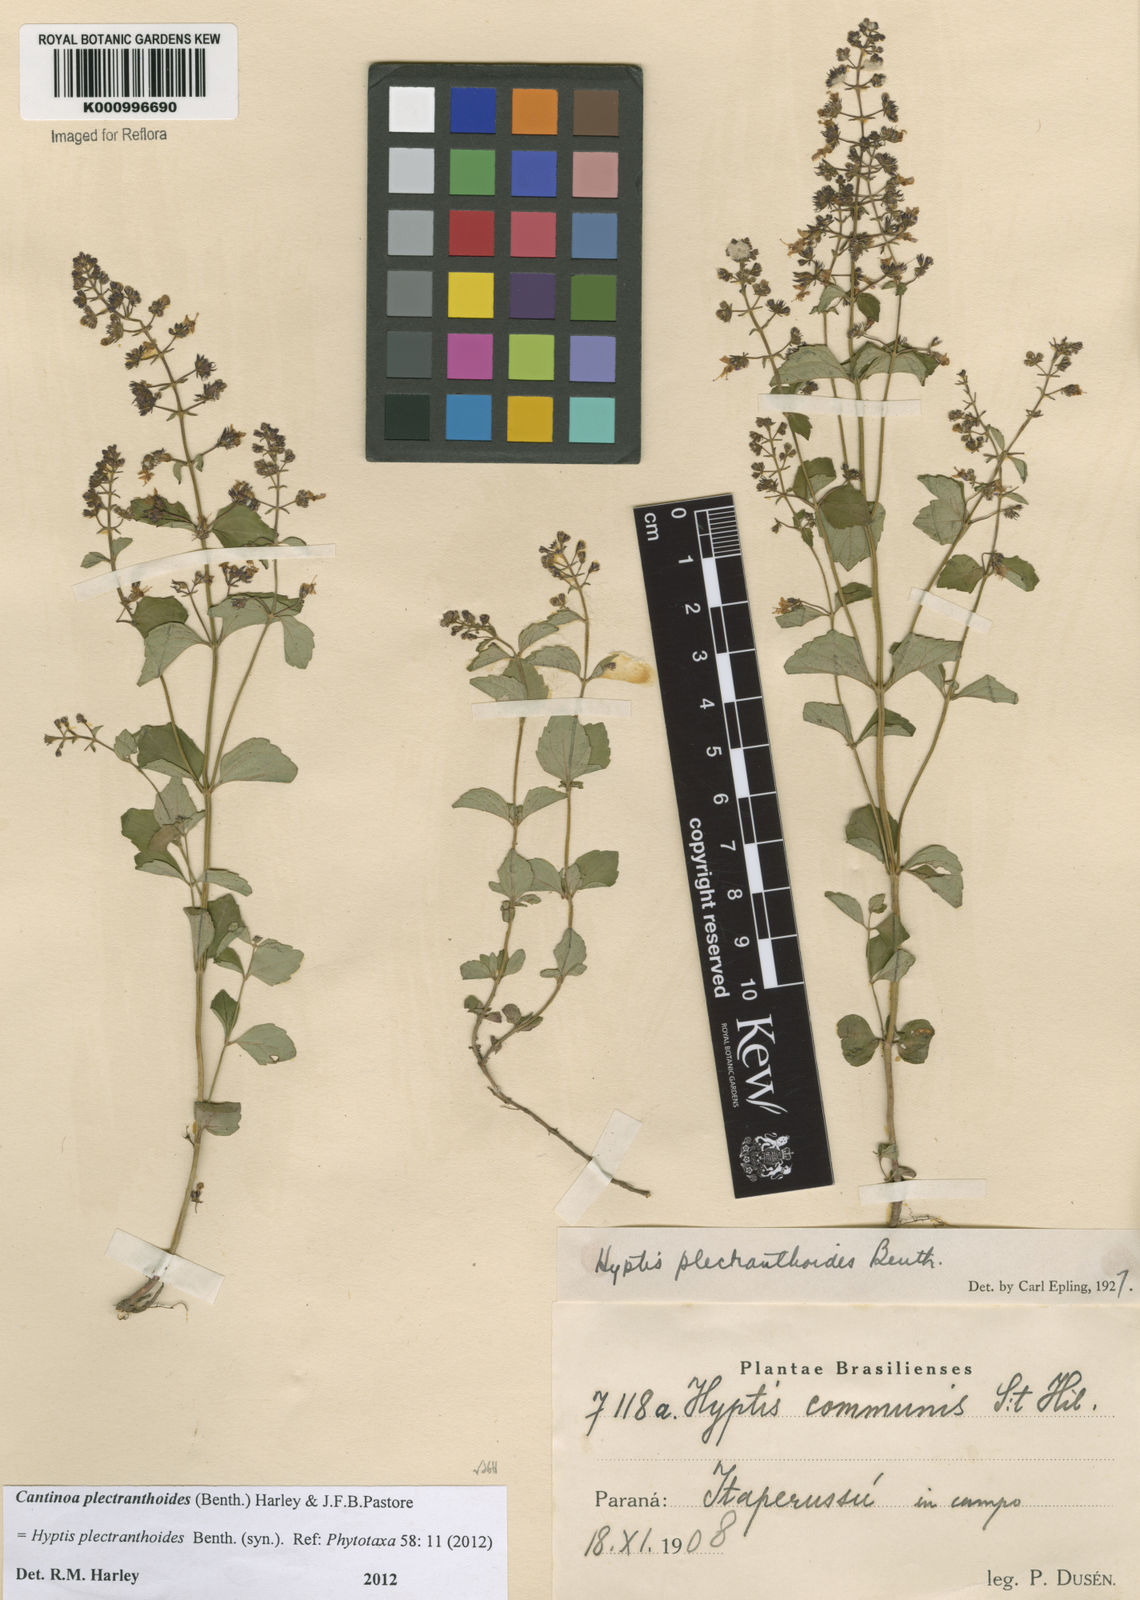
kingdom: Plantae
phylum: Tracheophyta
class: Magnoliopsida
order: Lamiales
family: Lamiaceae
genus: Cantinoa
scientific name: Cantinoa plectranthoides
